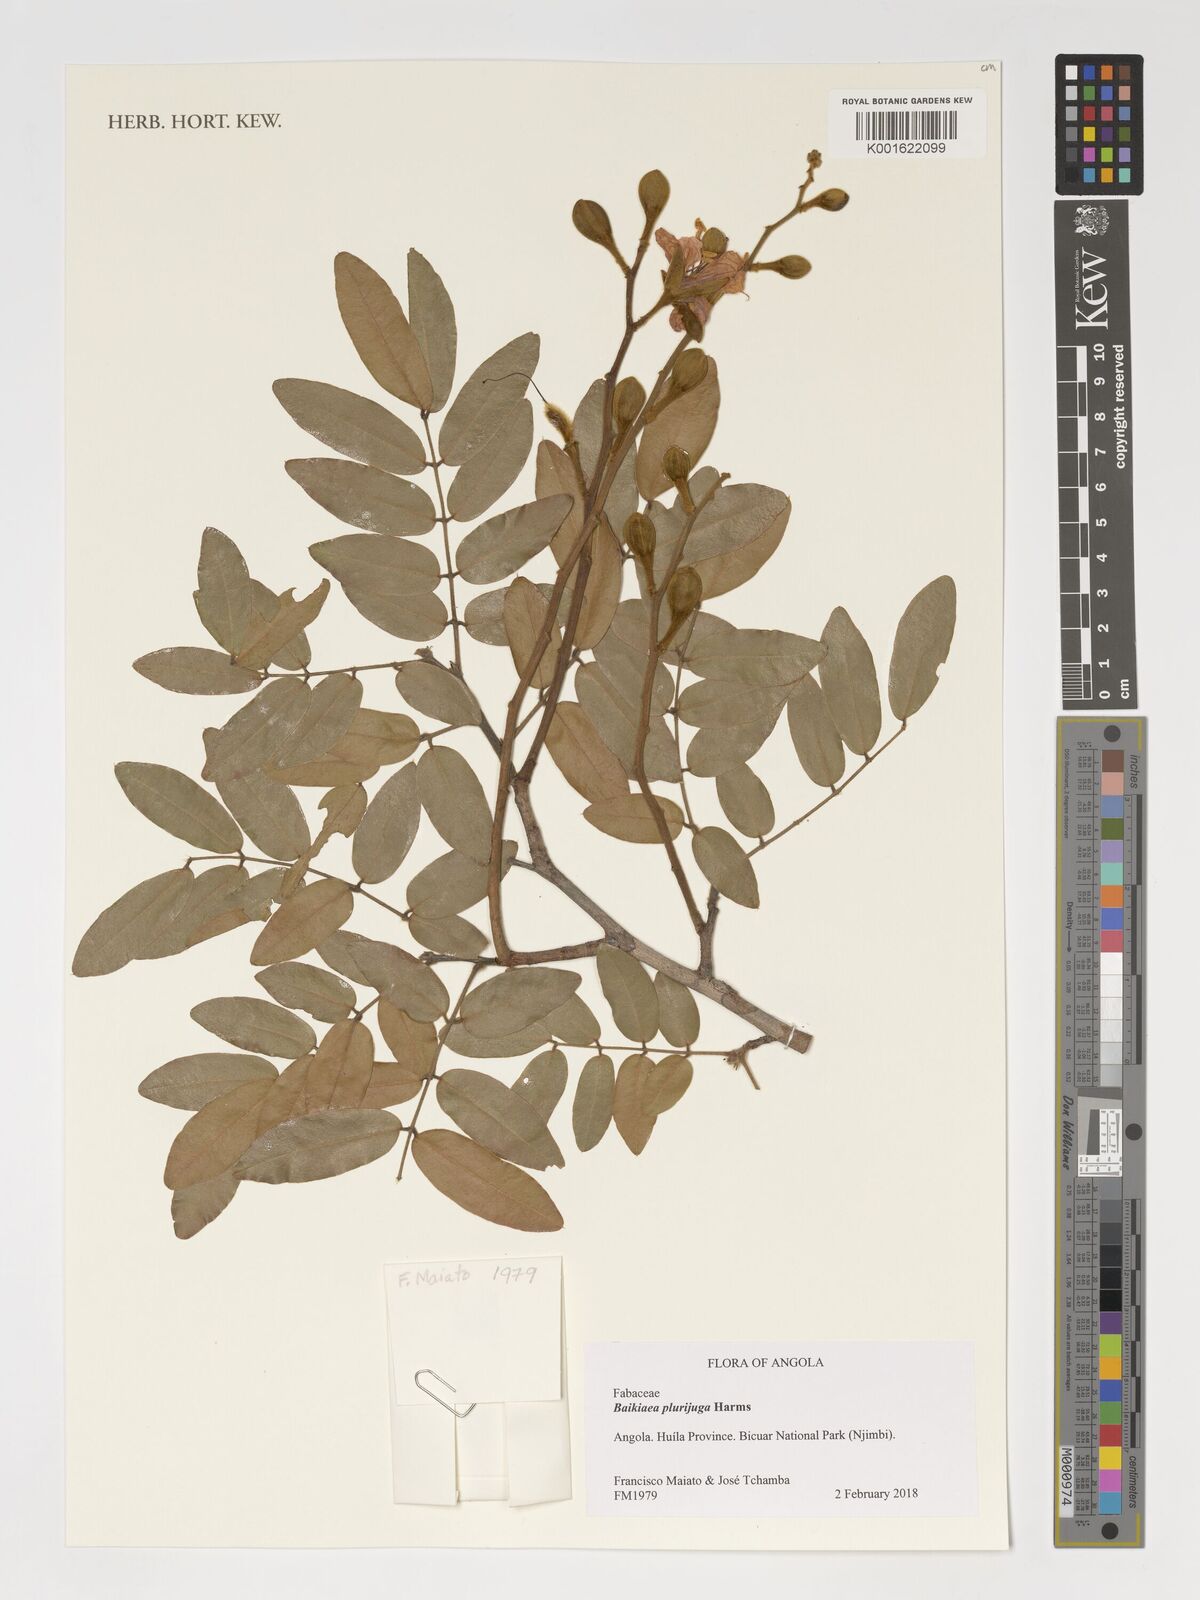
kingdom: Plantae
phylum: Tracheophyta
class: Magnoliopsida
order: Fabales
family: Fabaceae
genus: Baikiaea
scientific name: Baikiaea plurijuga
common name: Rhodesian-teak
